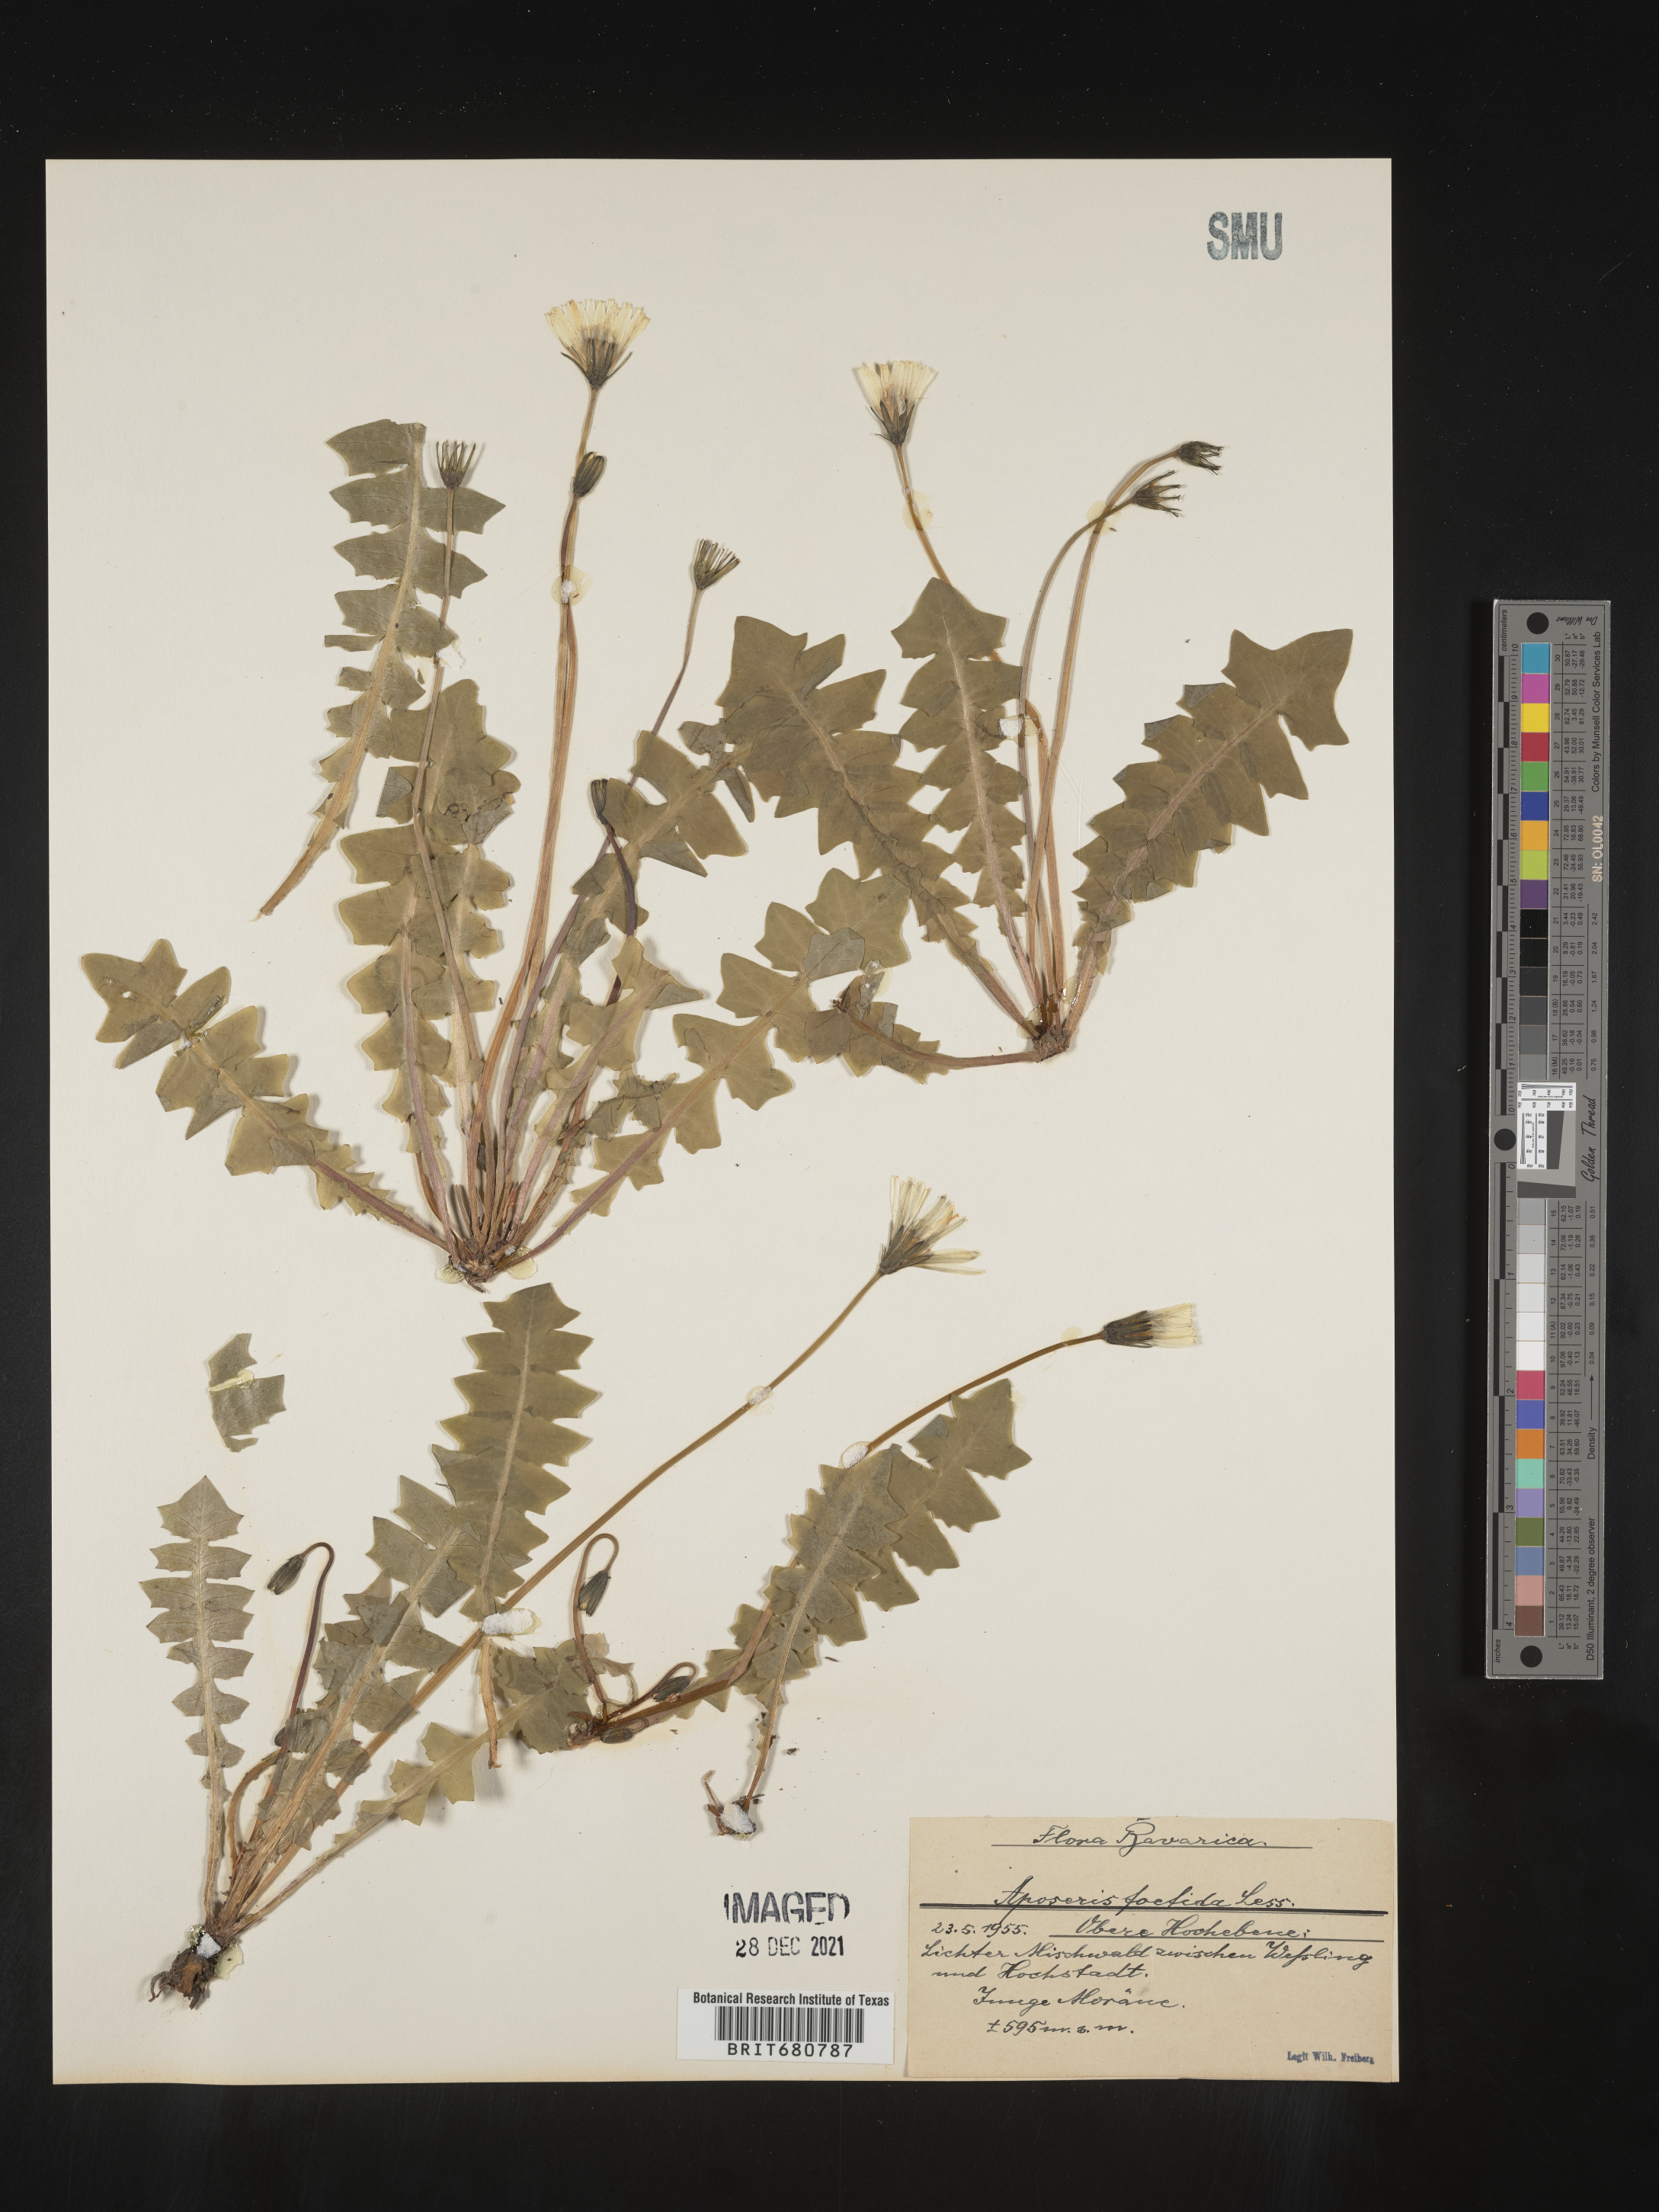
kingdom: Plantae
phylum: Tracheophyta
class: Magnoliopsida
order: Asterales
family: Asteraceae
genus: Aposeris
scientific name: Aposeris
